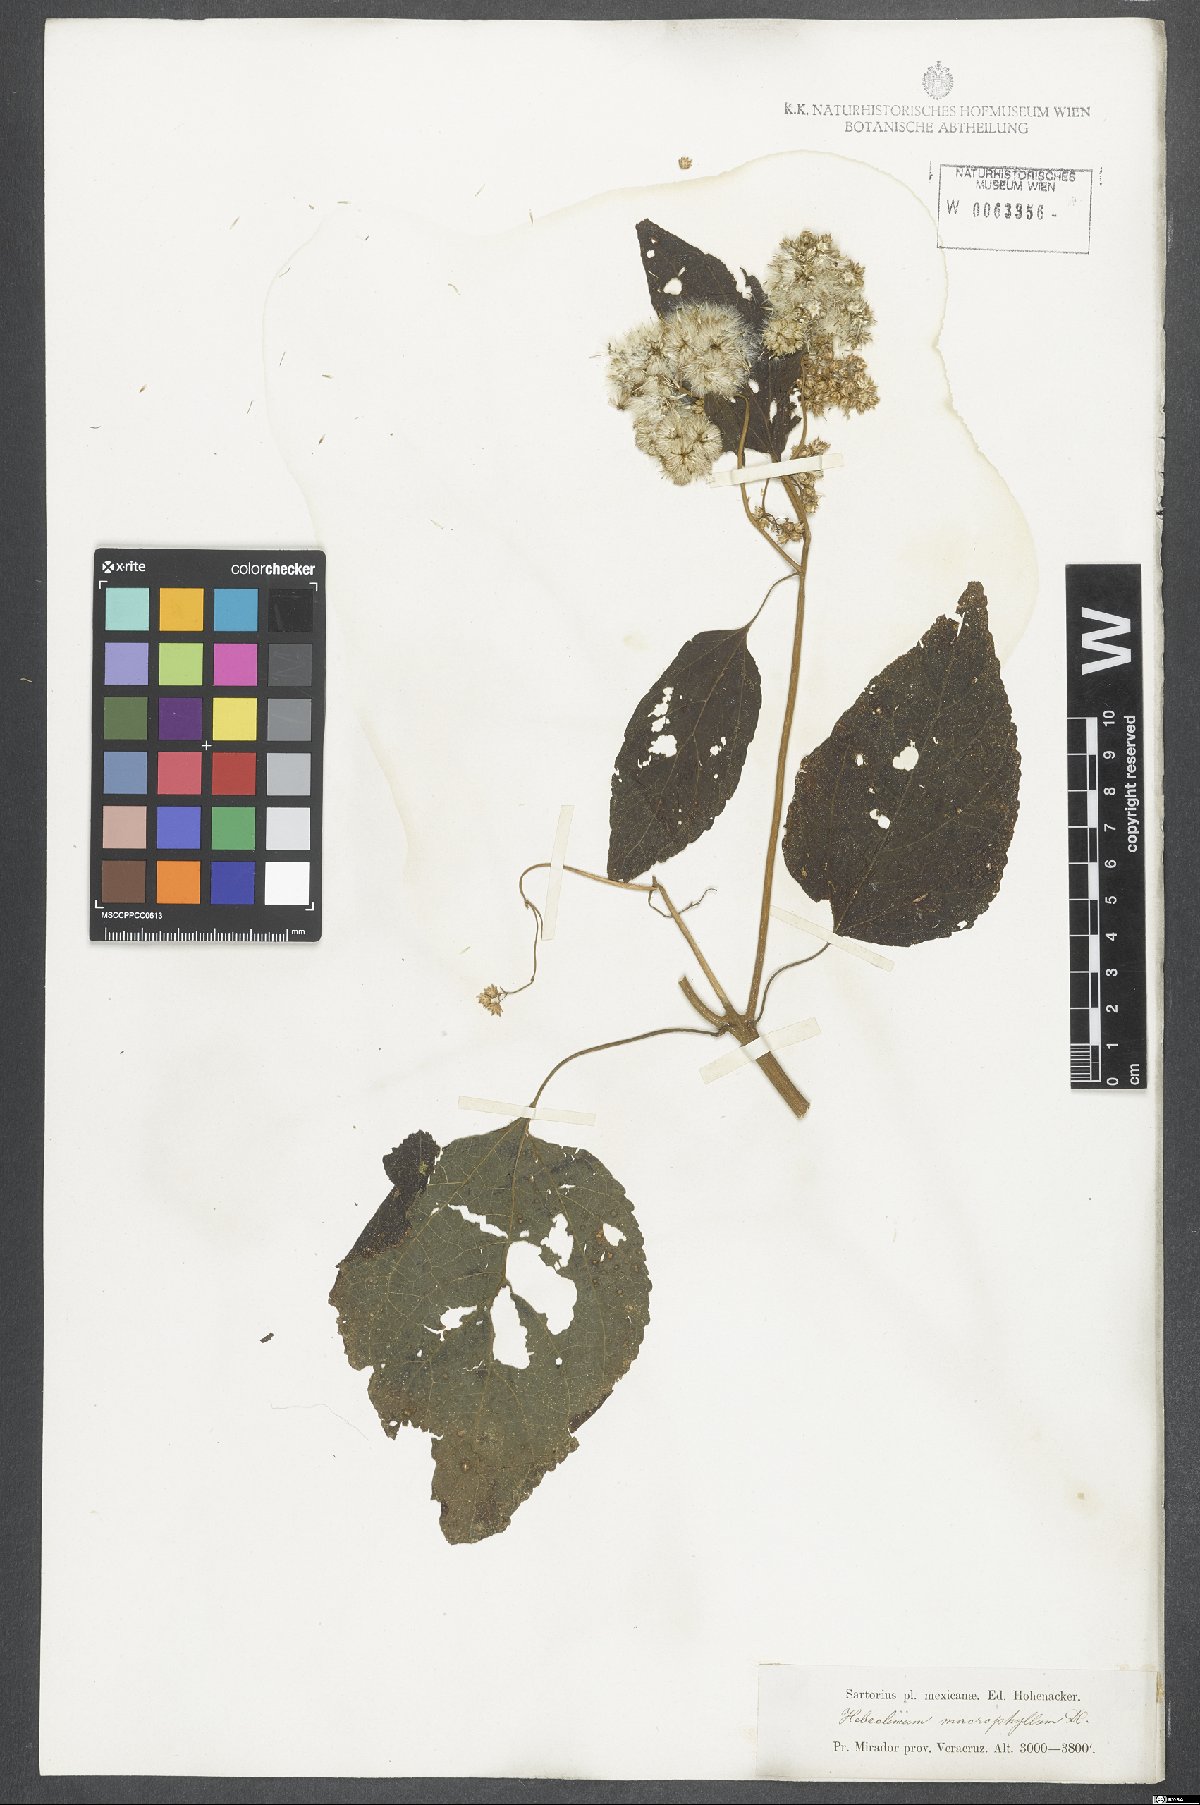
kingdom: Plantae
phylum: Tracheophyta
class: Magnoliopsida
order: Asterales
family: Asteraceae
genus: Hebeclinium
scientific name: Hebeclinium macrophyllum
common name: Largeleaf thoroughwort
